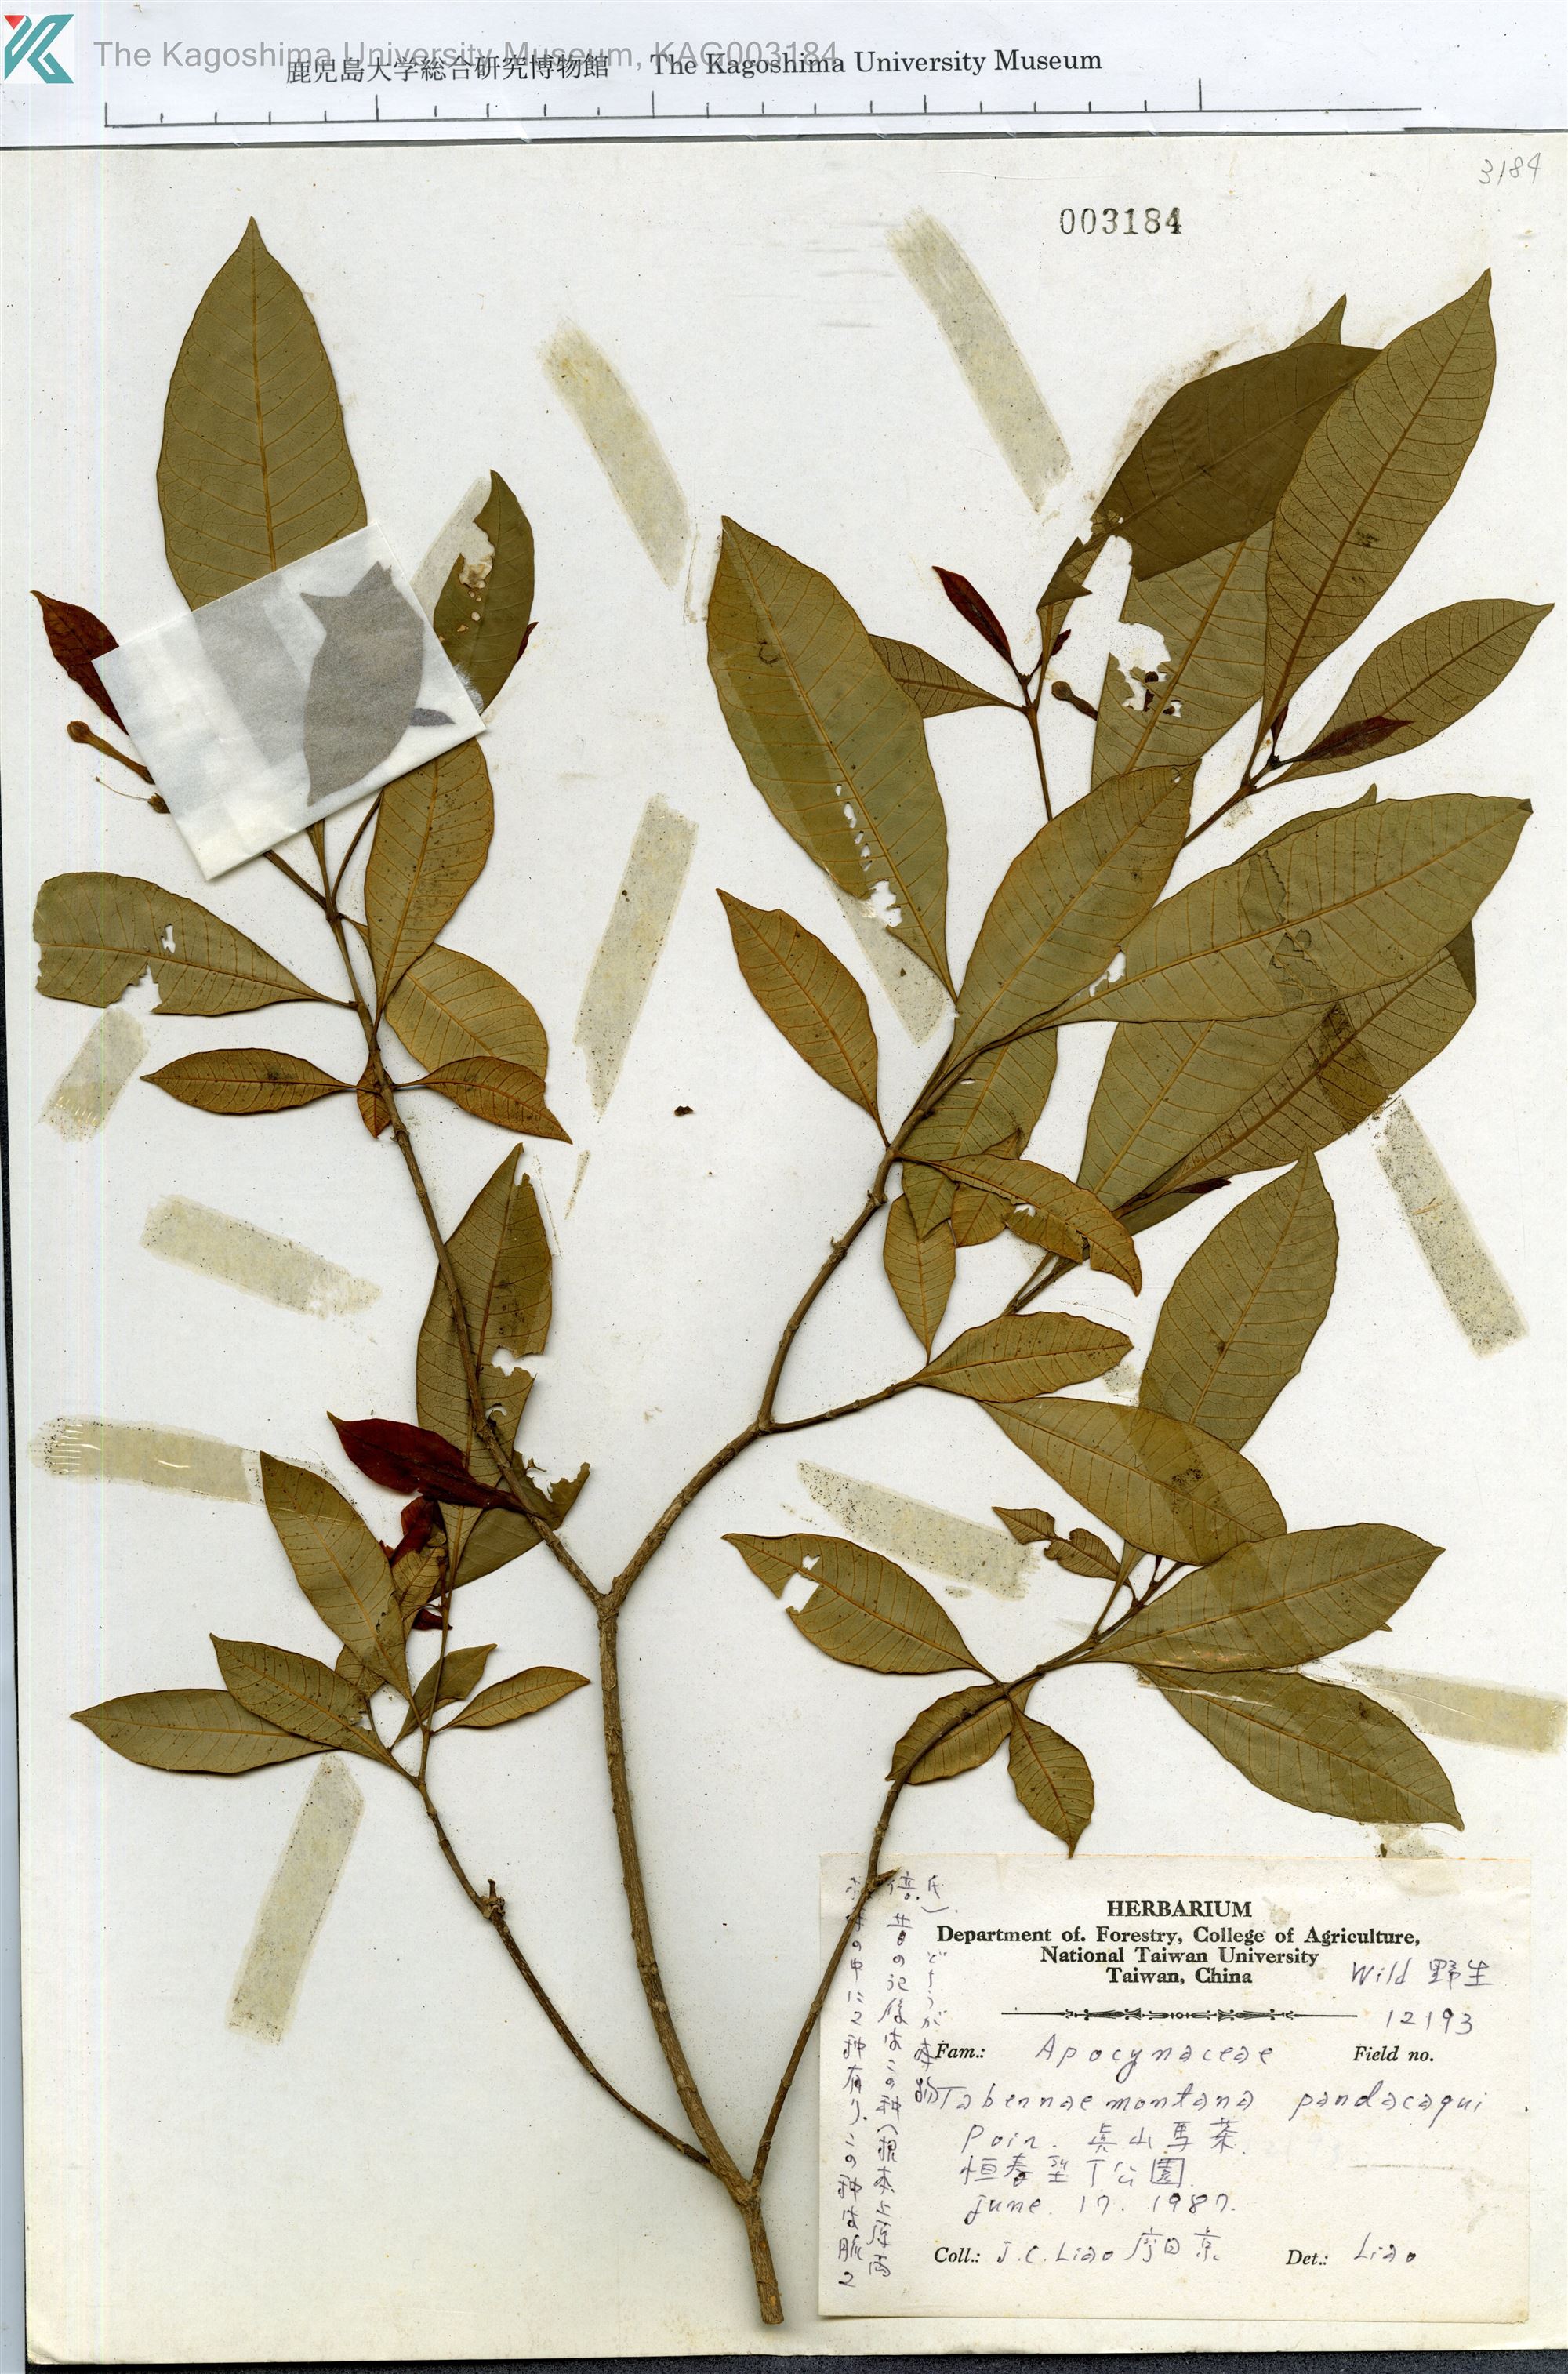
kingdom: Plantae
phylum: Tracheophyta
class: Magnoliopsida
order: Gentianales
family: Apocynaceae
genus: Tabernaemontana
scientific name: Tabernaemontana pandacaqui
